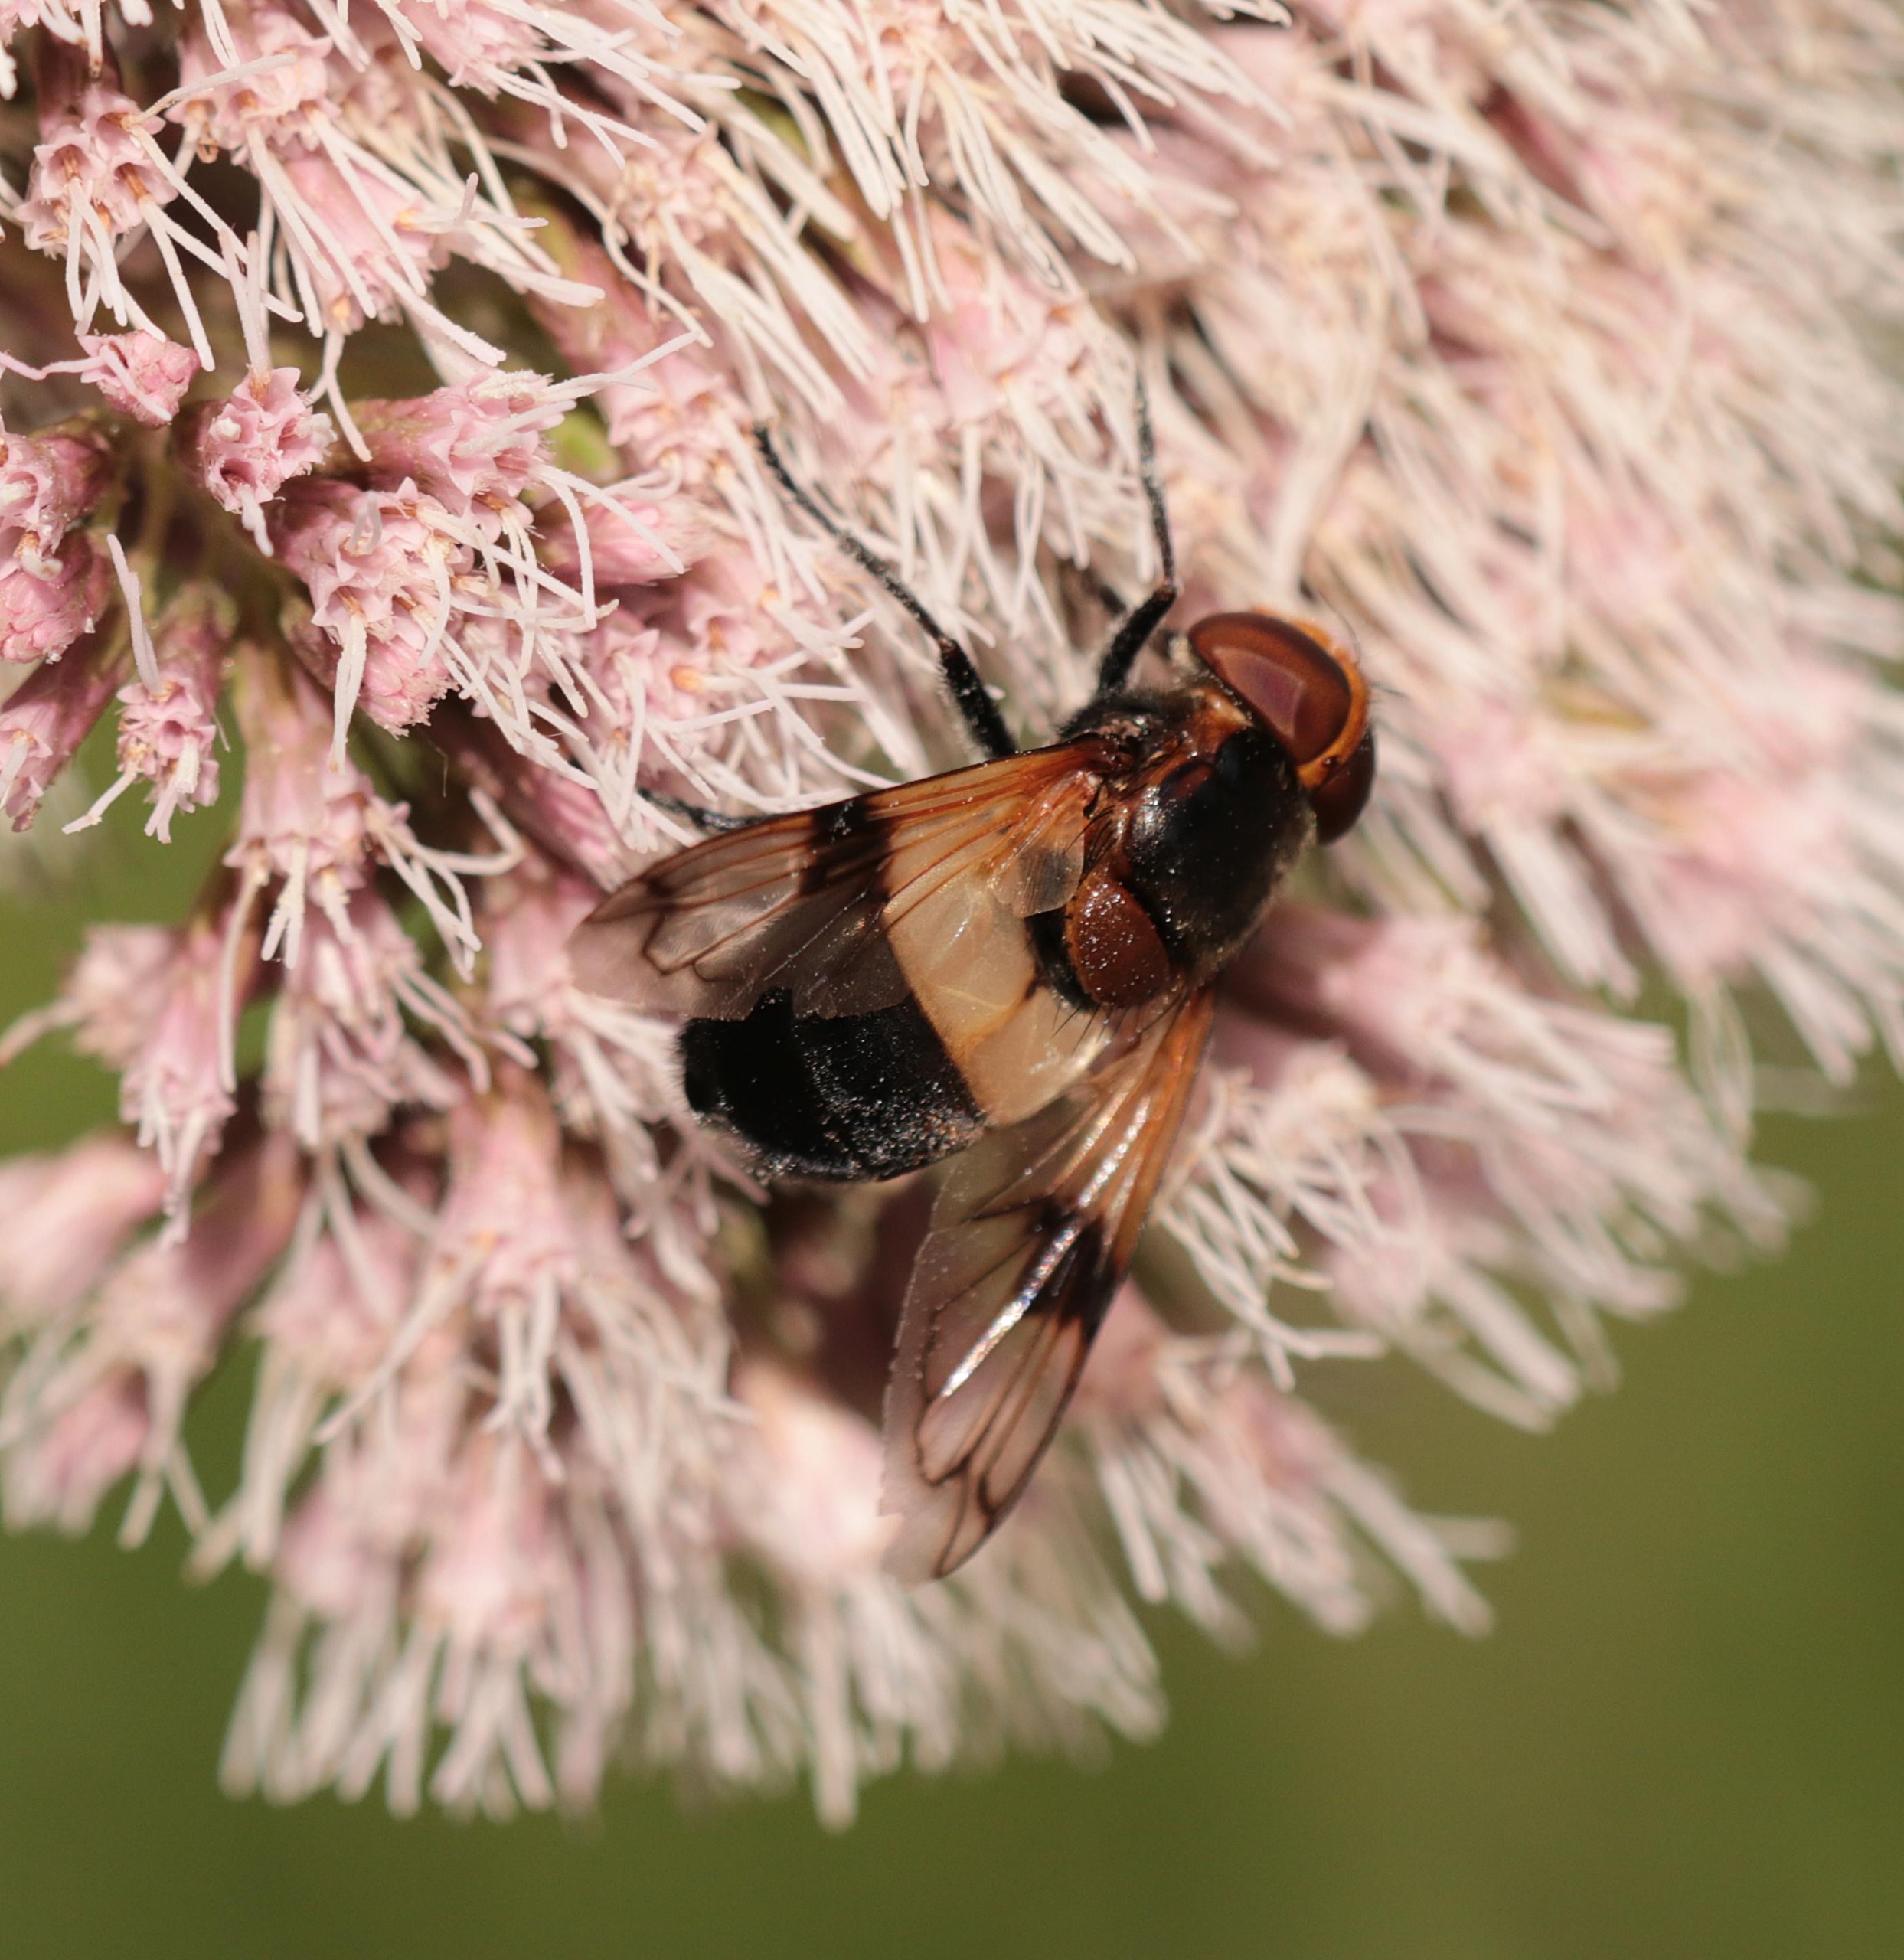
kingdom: Animalia
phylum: Arthropoda
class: Insecta
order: Diptera
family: Syrphidae
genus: Volucella
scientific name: Volucella pellucens
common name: Hvidbåndet humlesvirreflue
